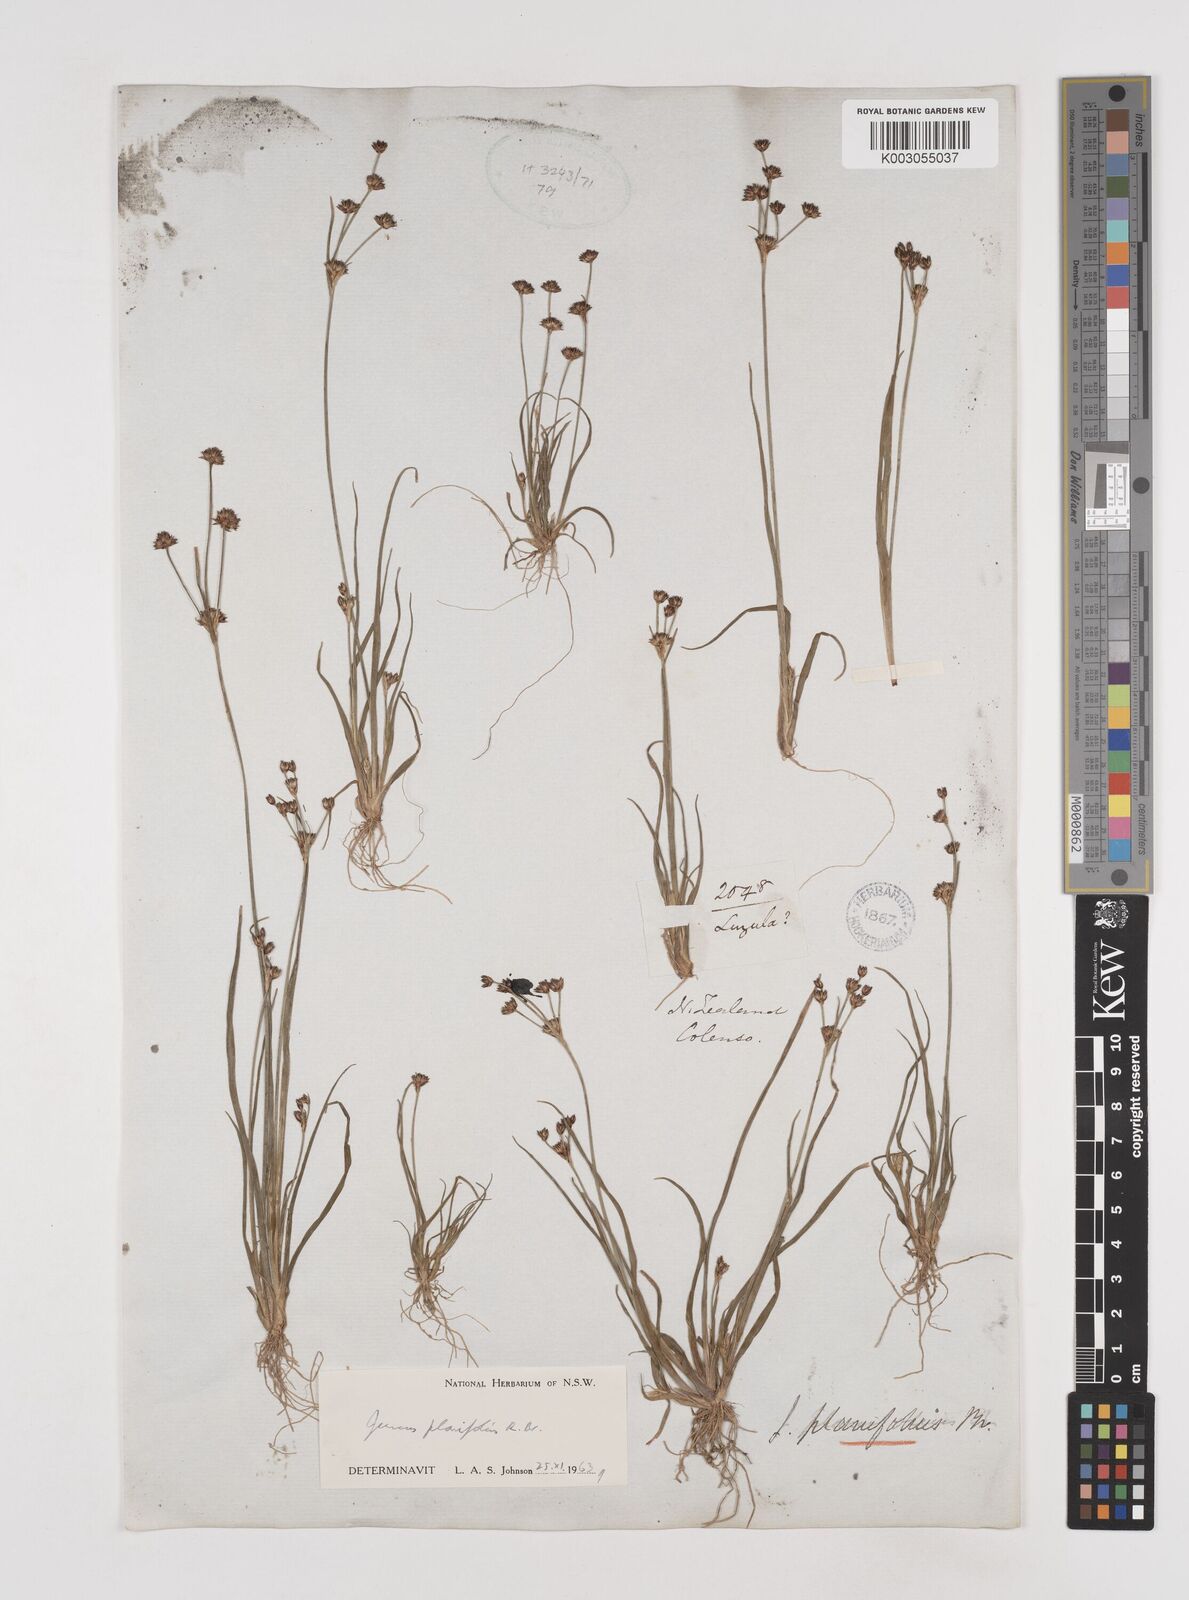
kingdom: Plantae
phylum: Tracheophyta
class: Liliopsida
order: Poales
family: Juncaceae
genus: Juncus
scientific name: Juncus planifolius
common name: Broadleaf rush
